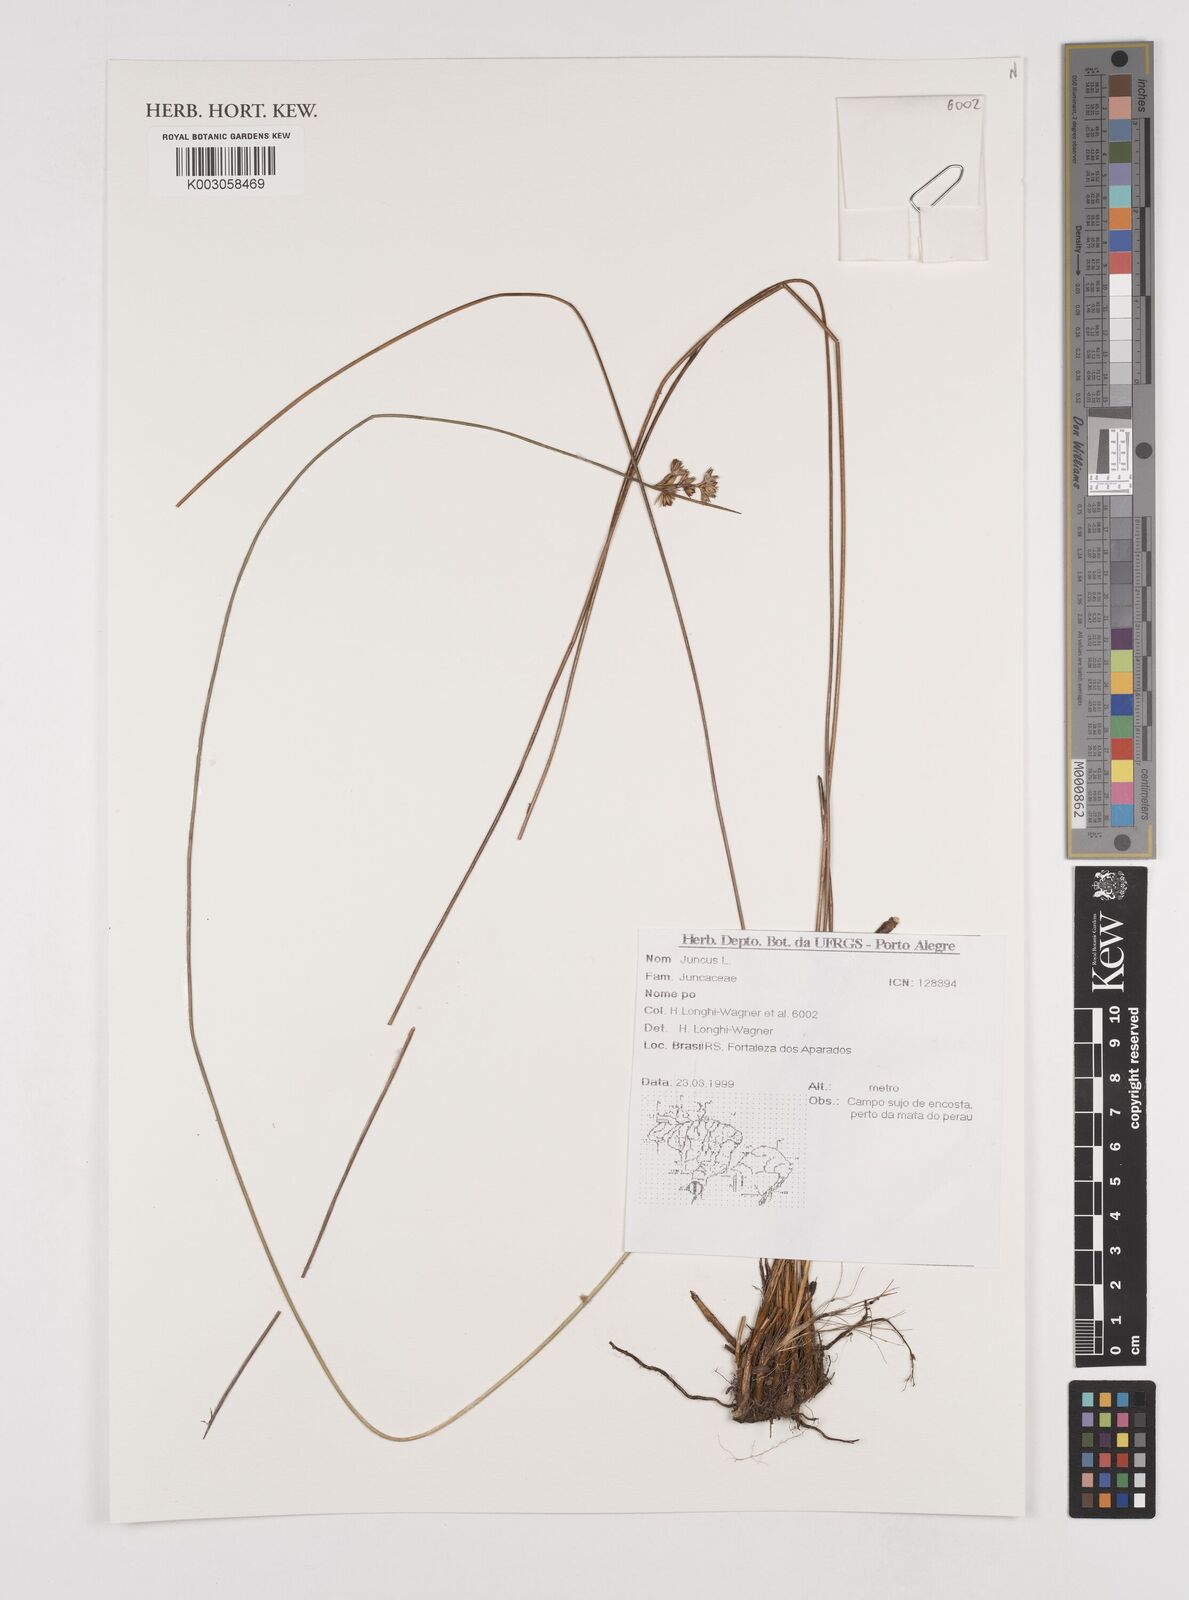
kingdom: Plantae
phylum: Tracheophyta
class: Liliopsida
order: Poales
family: Juncaceae
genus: Juncus
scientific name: Juncus
